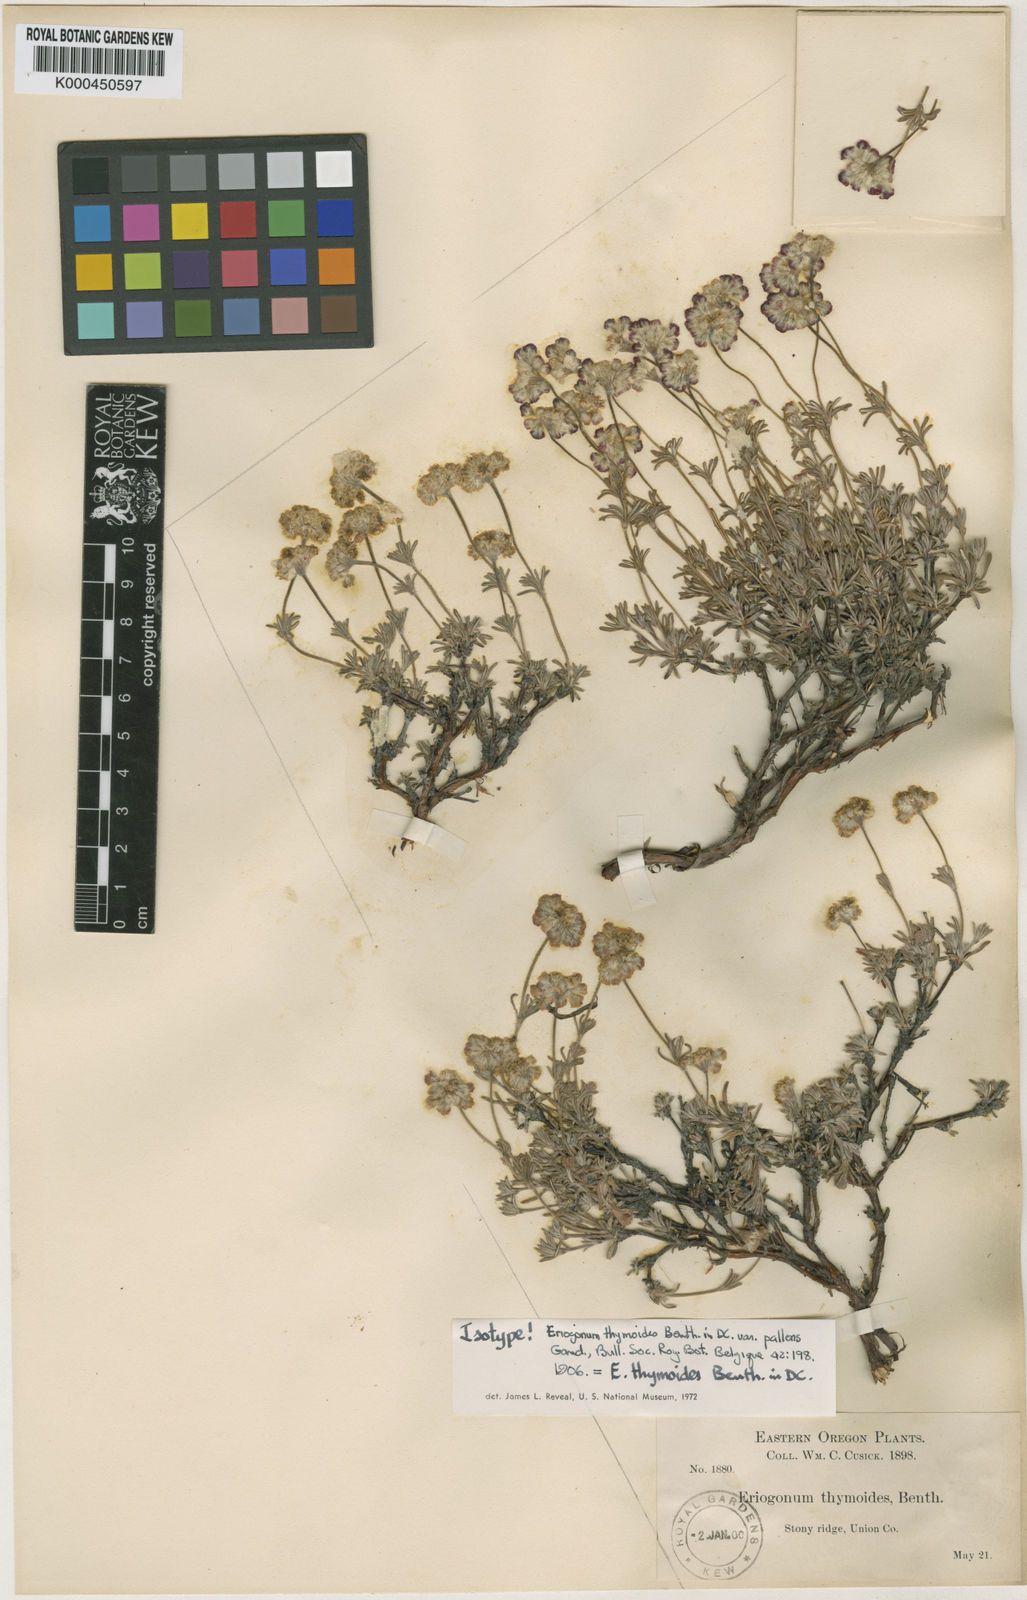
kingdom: Plantae
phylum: Tracheophyta
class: Magnoliopsida
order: Caryophyllales
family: Polygonaceae
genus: Eriogonum
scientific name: Eriogonum thymoides
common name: Thyme-leaf wild buckwheat
